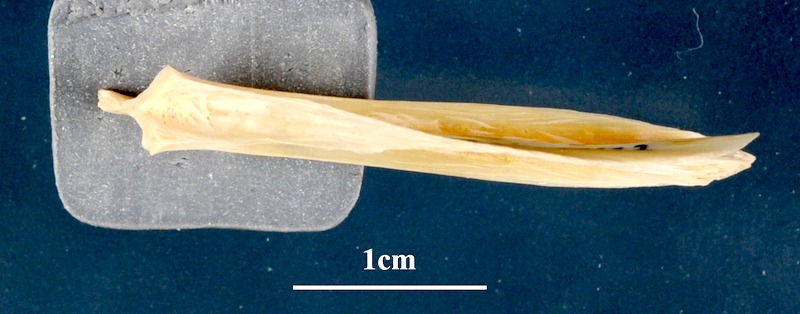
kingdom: Animalia
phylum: Chordata
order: Perciformes
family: Sciaenidae
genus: Argyrosomus
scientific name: Argyrosomus regius
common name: Meagre
